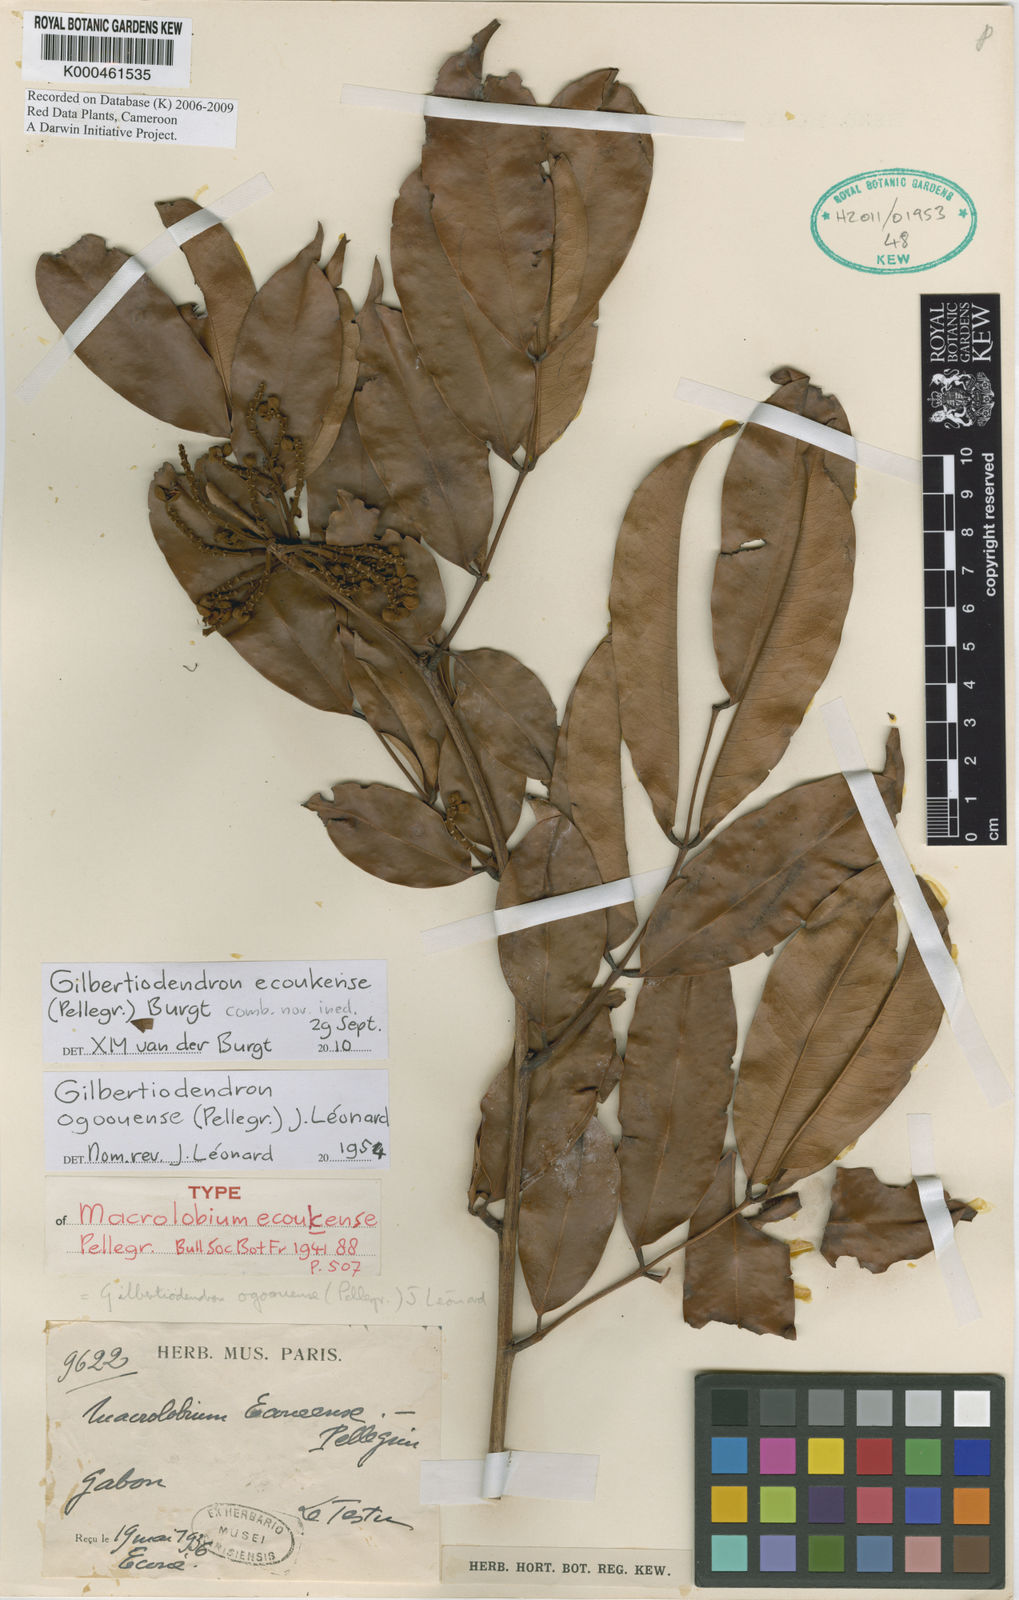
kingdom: Plantae
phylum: Tracheophyta
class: Magnoliopsida
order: Fabales
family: Fabaceae
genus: Gilbertiodendron
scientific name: Gilbertiodendron ecoukense
